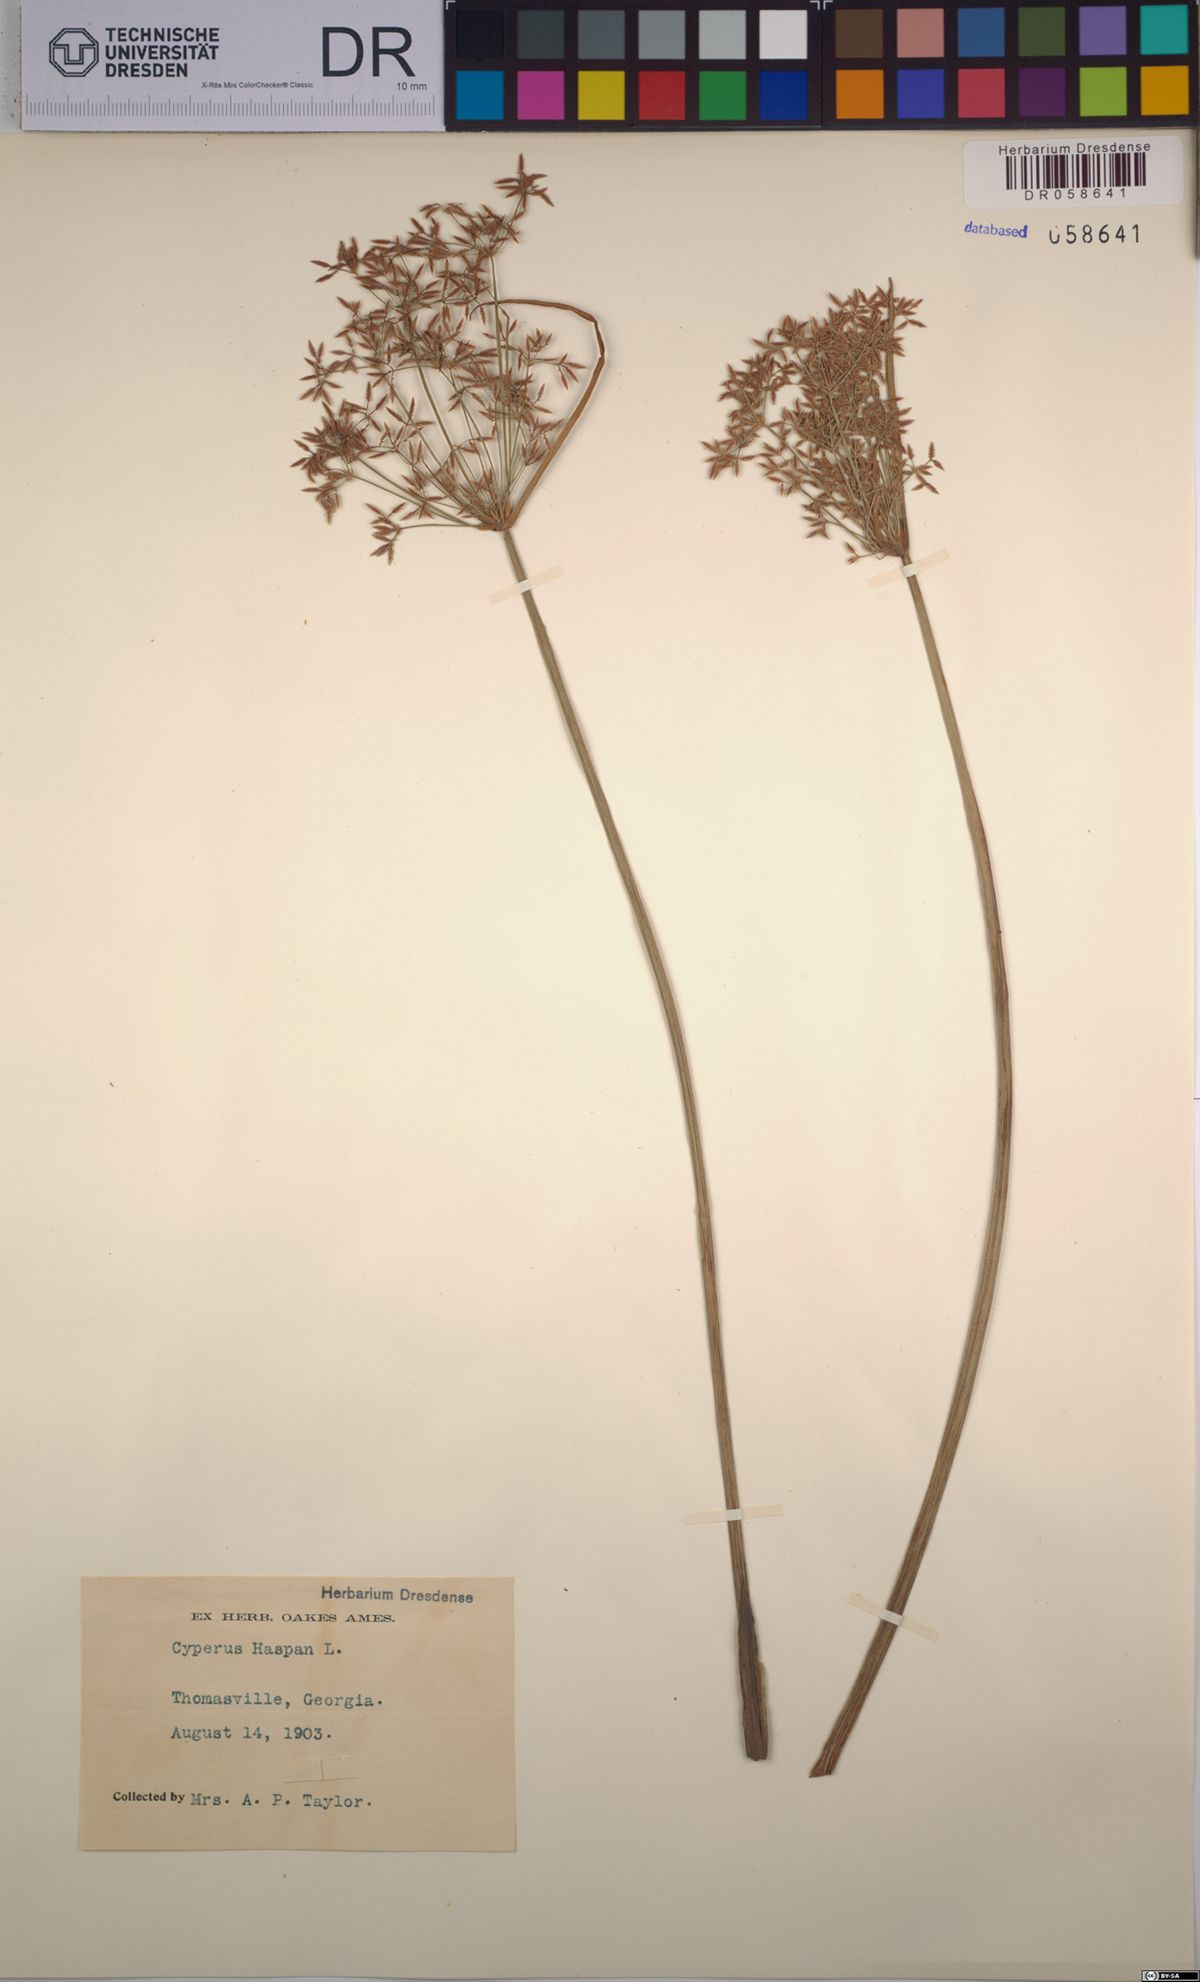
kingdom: Plantae
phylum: Tracheophyta
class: Liliopsida
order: Poales
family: Cyperaceae
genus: Cyperus
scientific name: Cyperus haspan
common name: Haspan flatsedge
